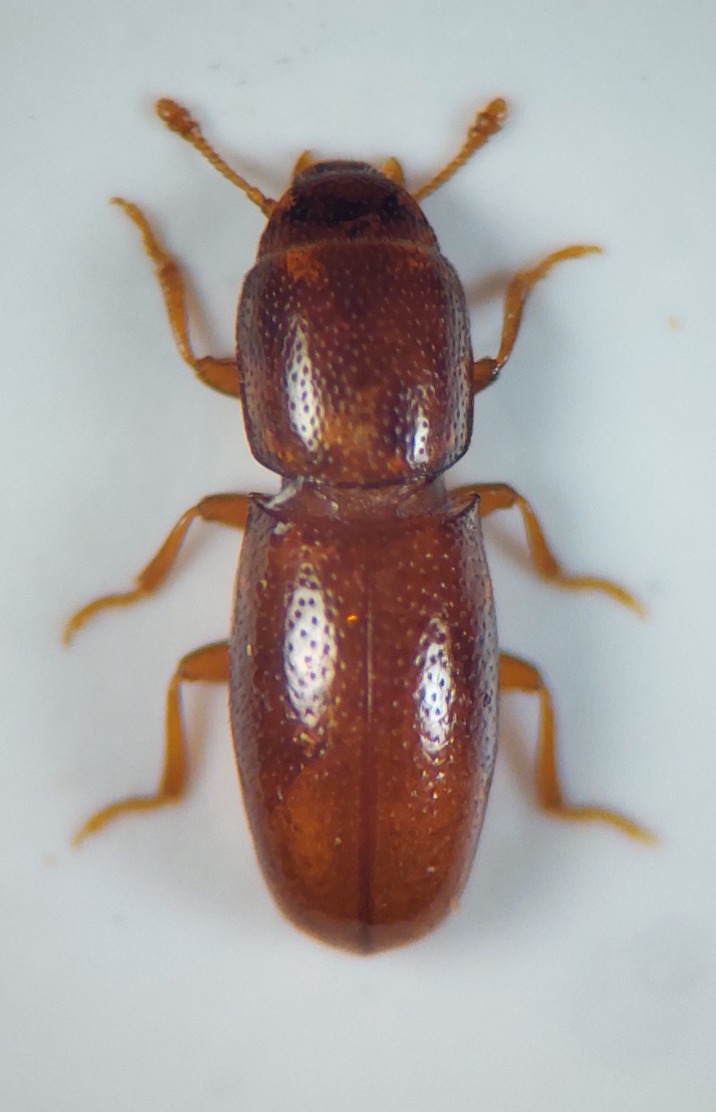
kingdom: Animalia
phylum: Arthropoda
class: Insecta
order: Coleoptera
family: Salpingidae
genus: Aglenus
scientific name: Aglenus brunneus
